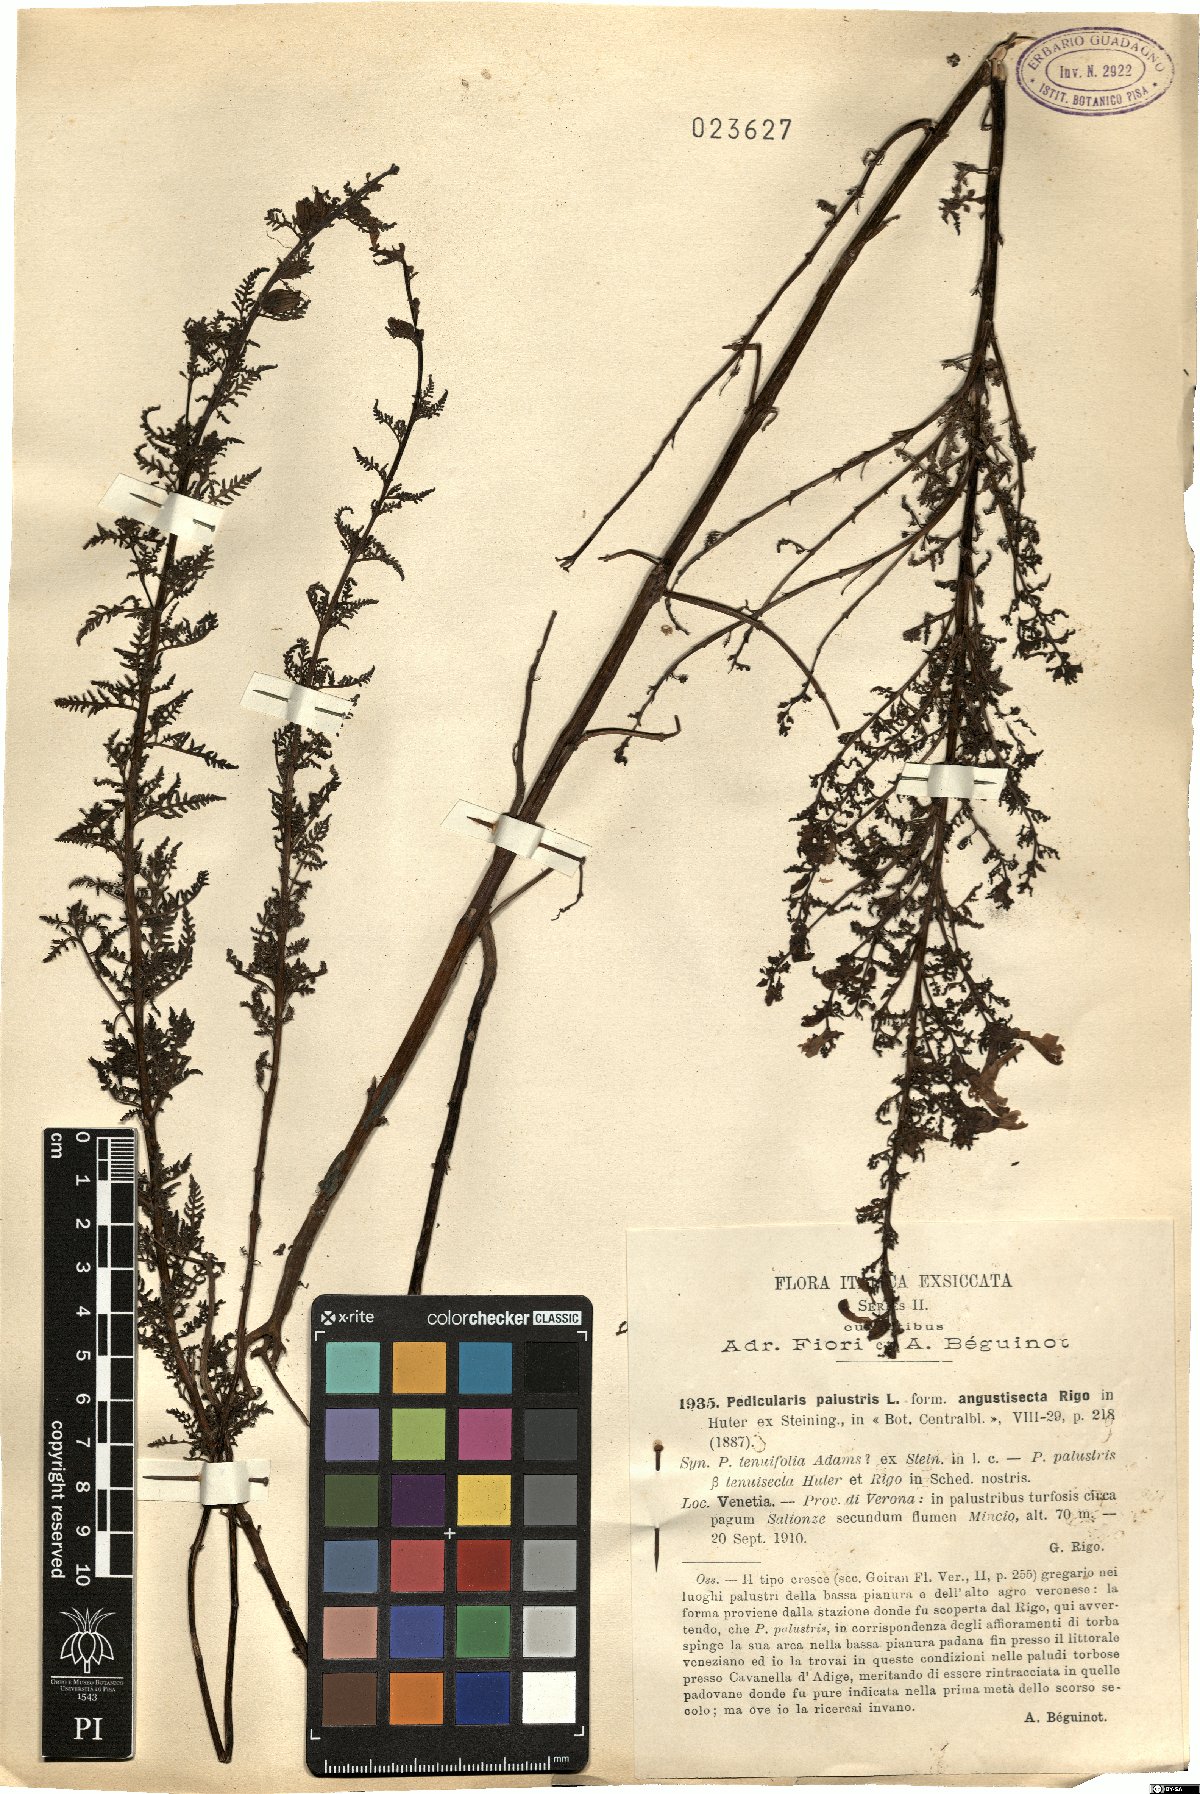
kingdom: Plantae
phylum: Tracheophyta
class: Magnoliopsida
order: Lamiales
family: Orobanchaceae
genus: Pedicularis
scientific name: Pedicularis palustris
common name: Marsh lousewort
